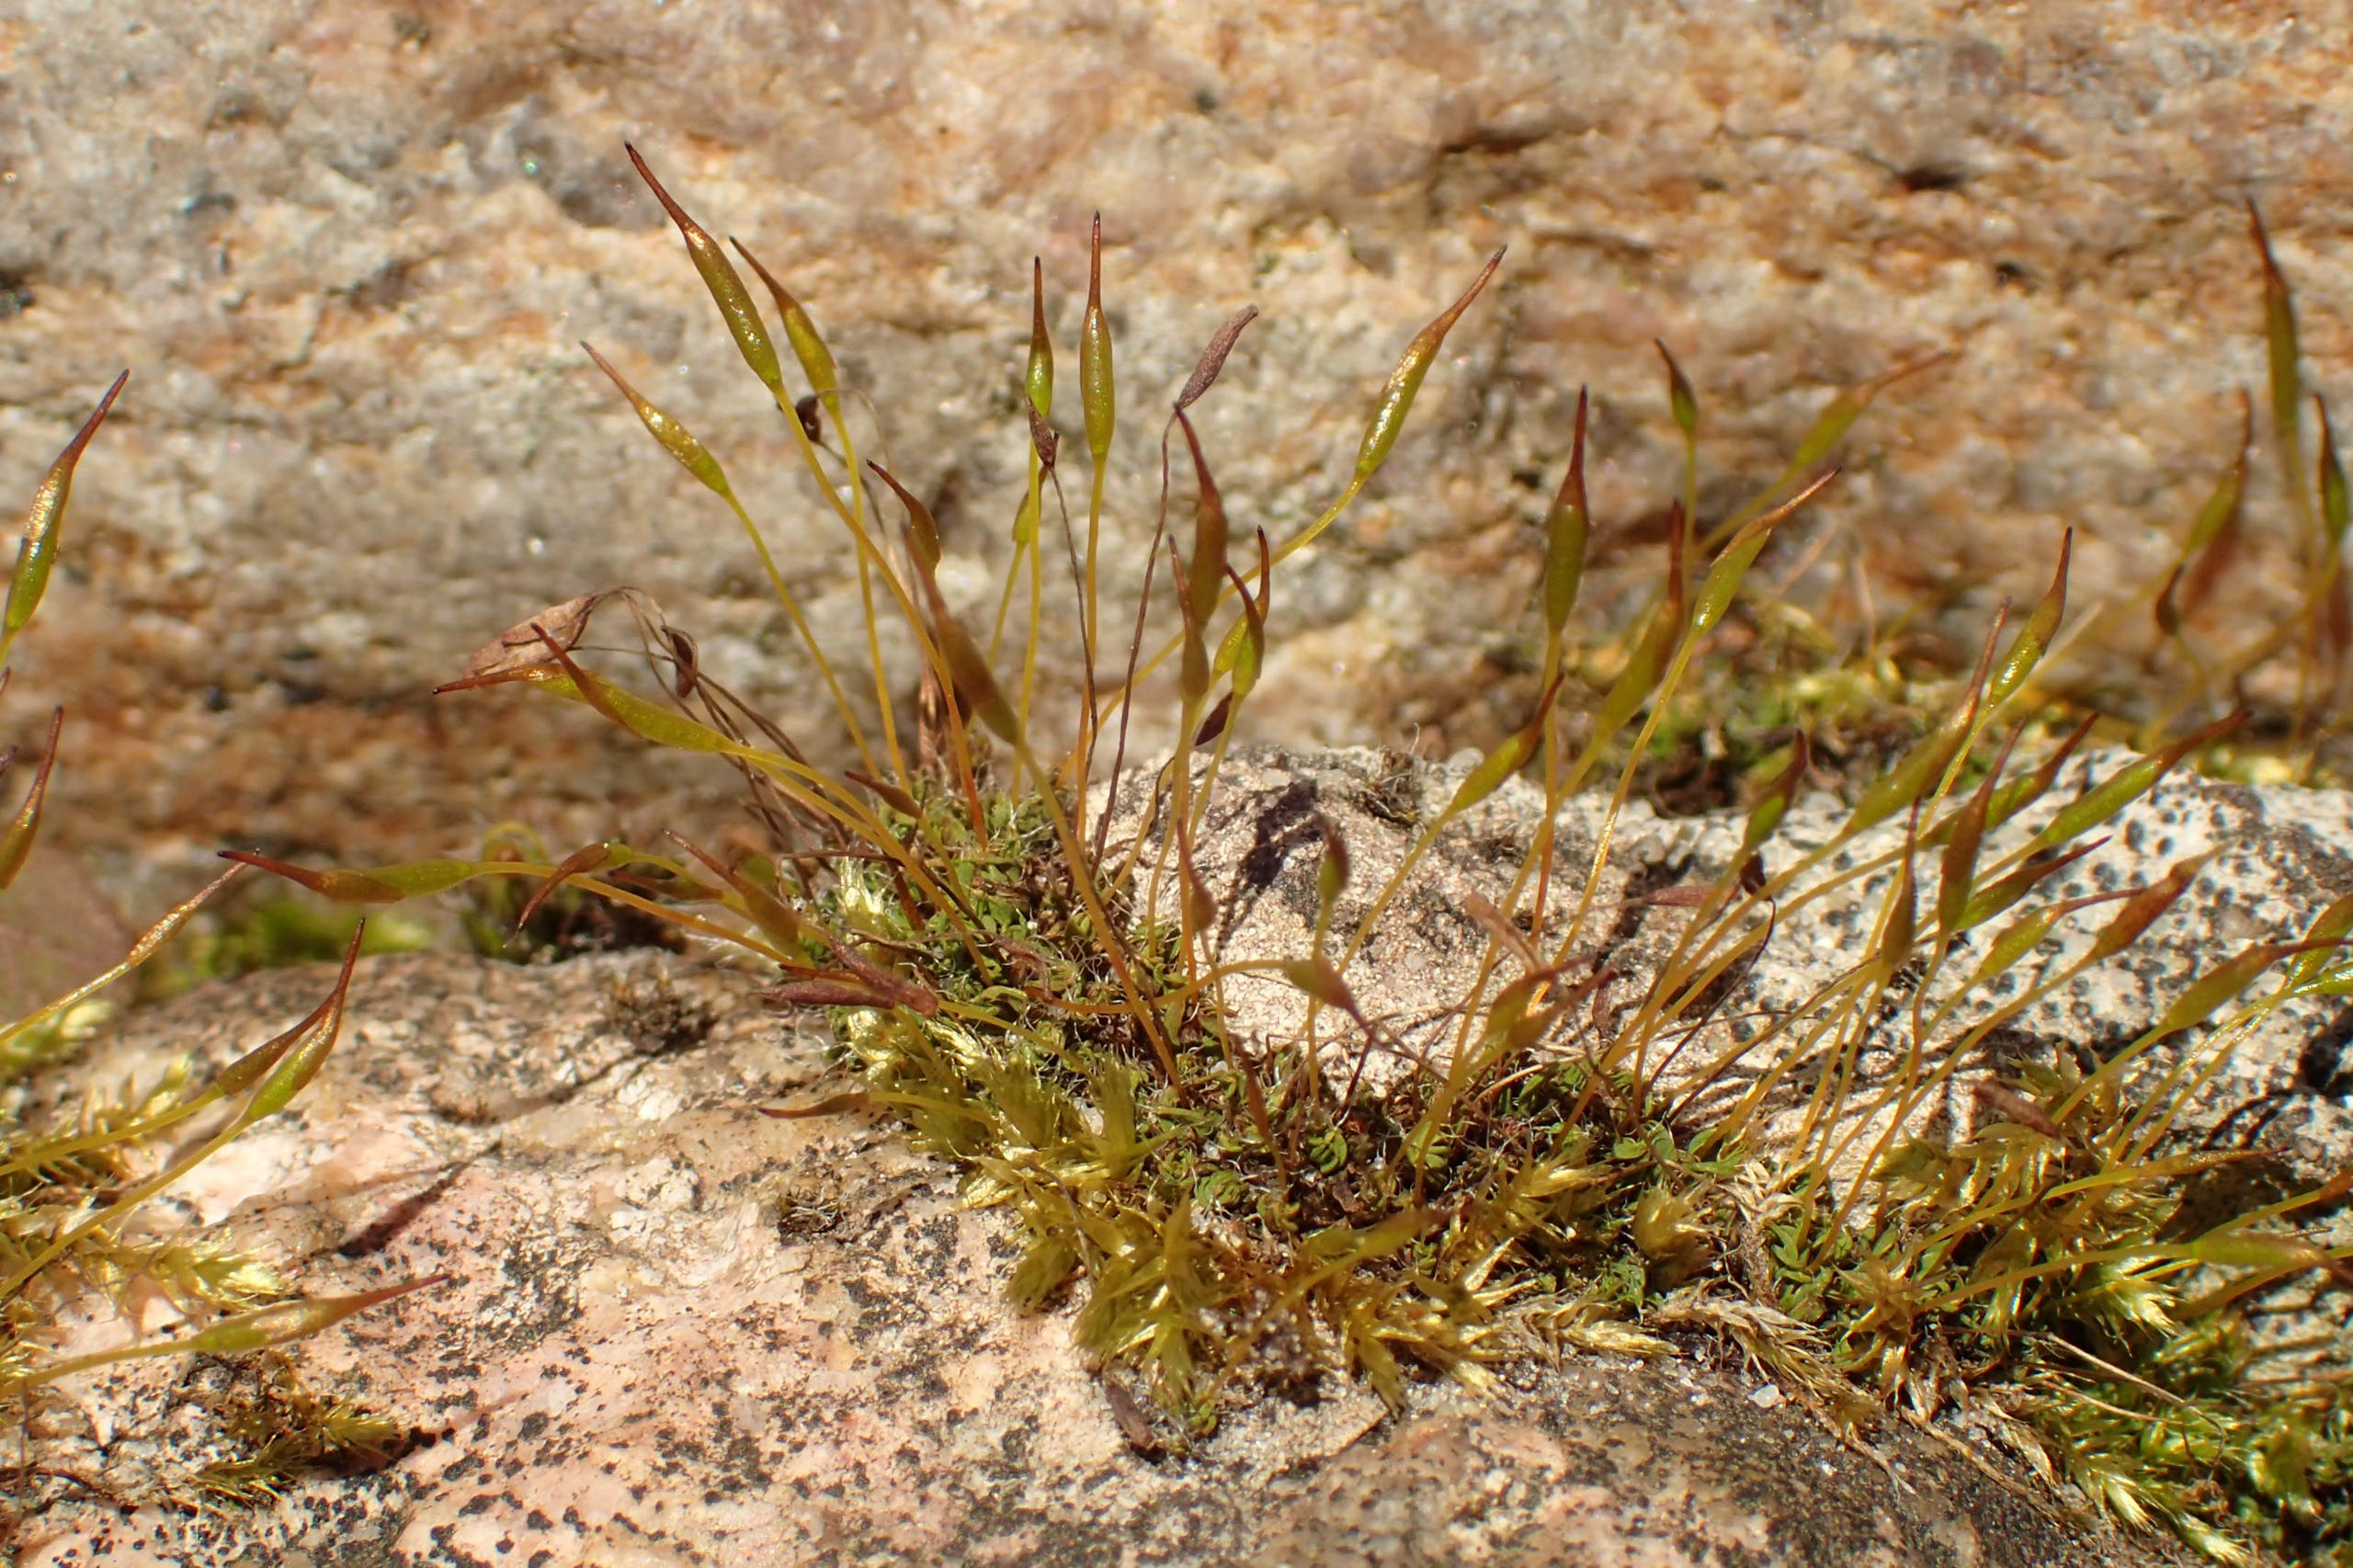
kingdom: Plantae
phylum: Bryophyta
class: Bryopsida
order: Pottiales
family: Pottiaceae
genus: Tortula
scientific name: Tortula muralis
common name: Mur-snotand
